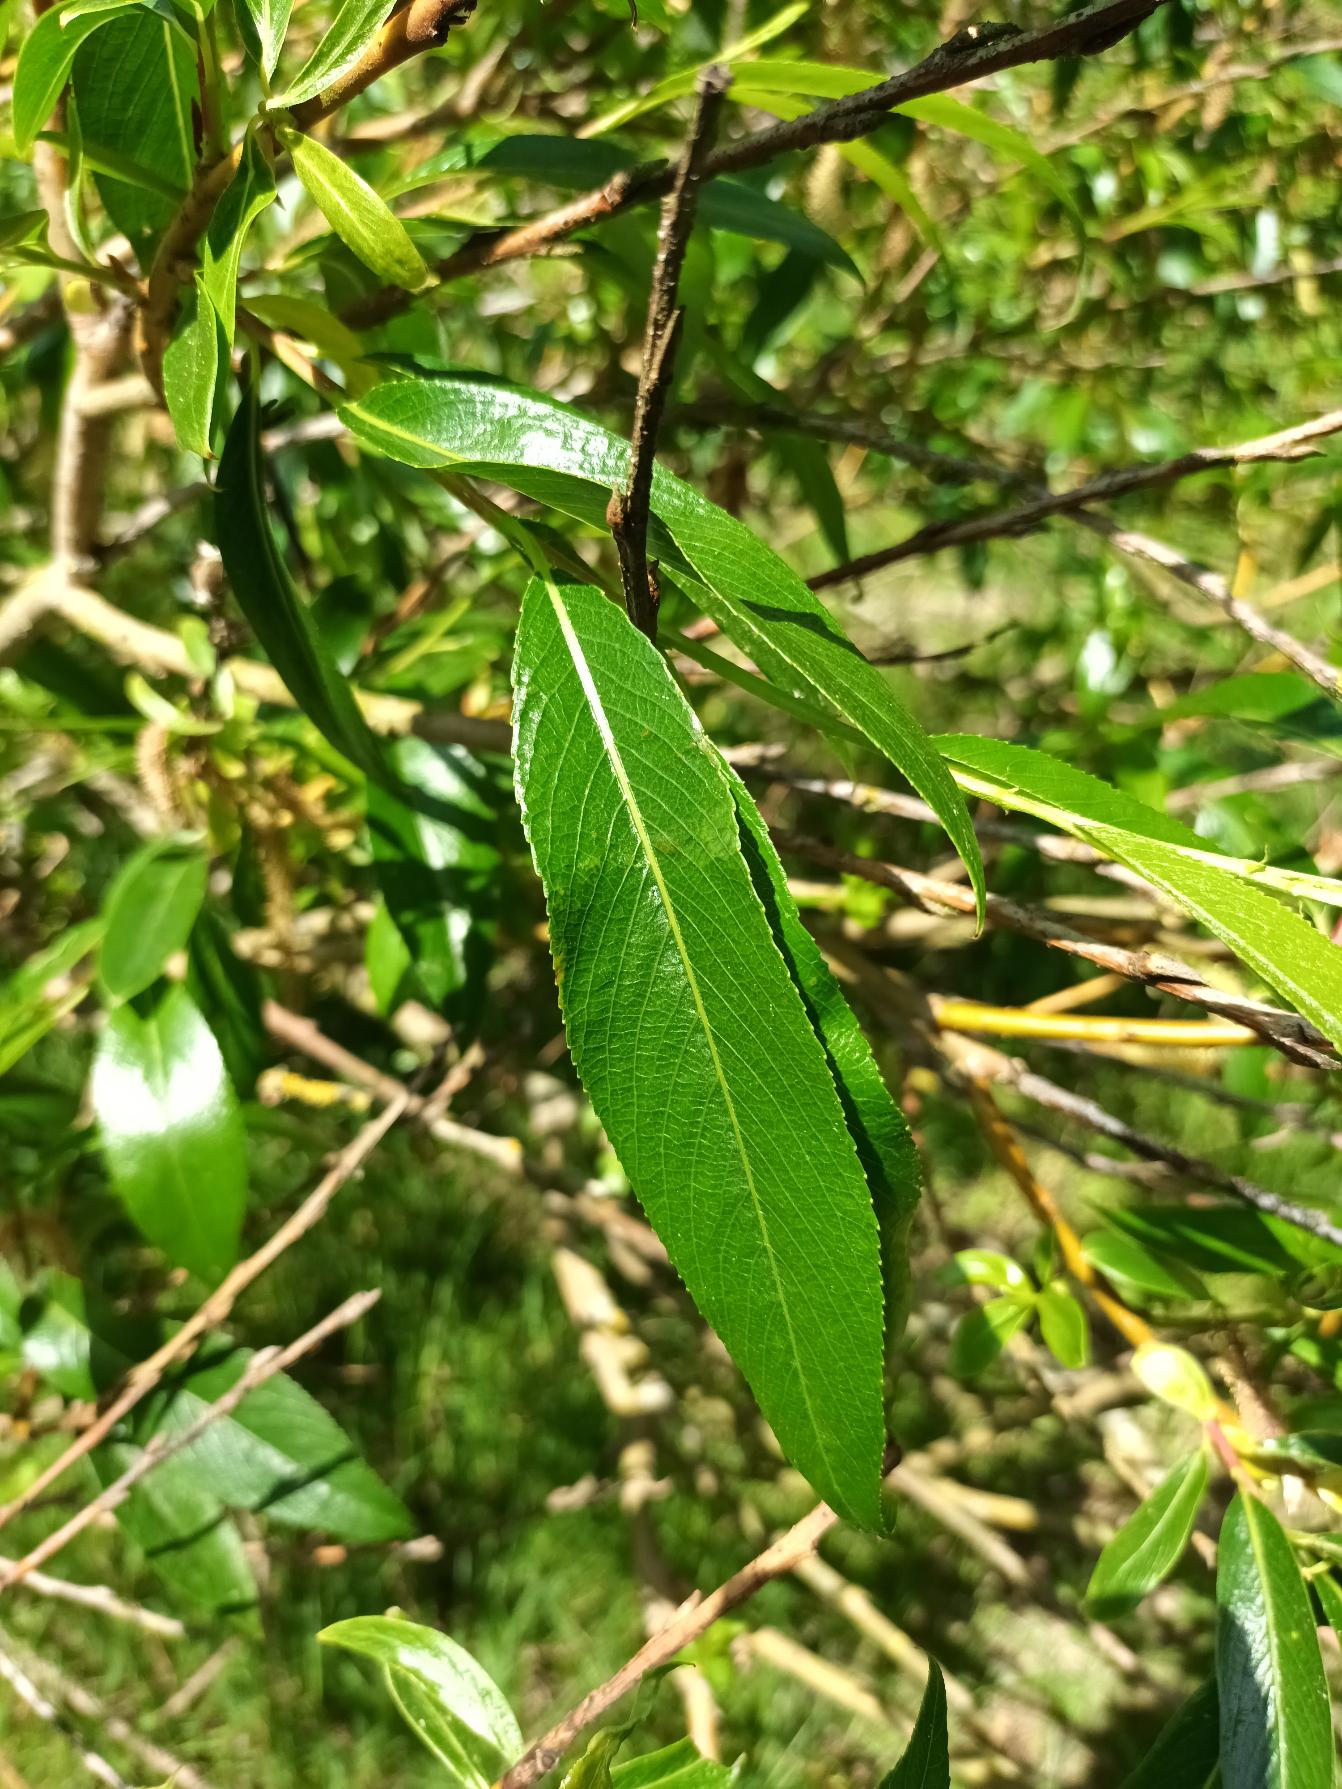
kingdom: Plantae
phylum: Tracheophyta
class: Magnoliopsida
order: Malpighiales
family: Salicaceae
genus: Salix
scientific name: Salix meyeriana
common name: Glans-pil
